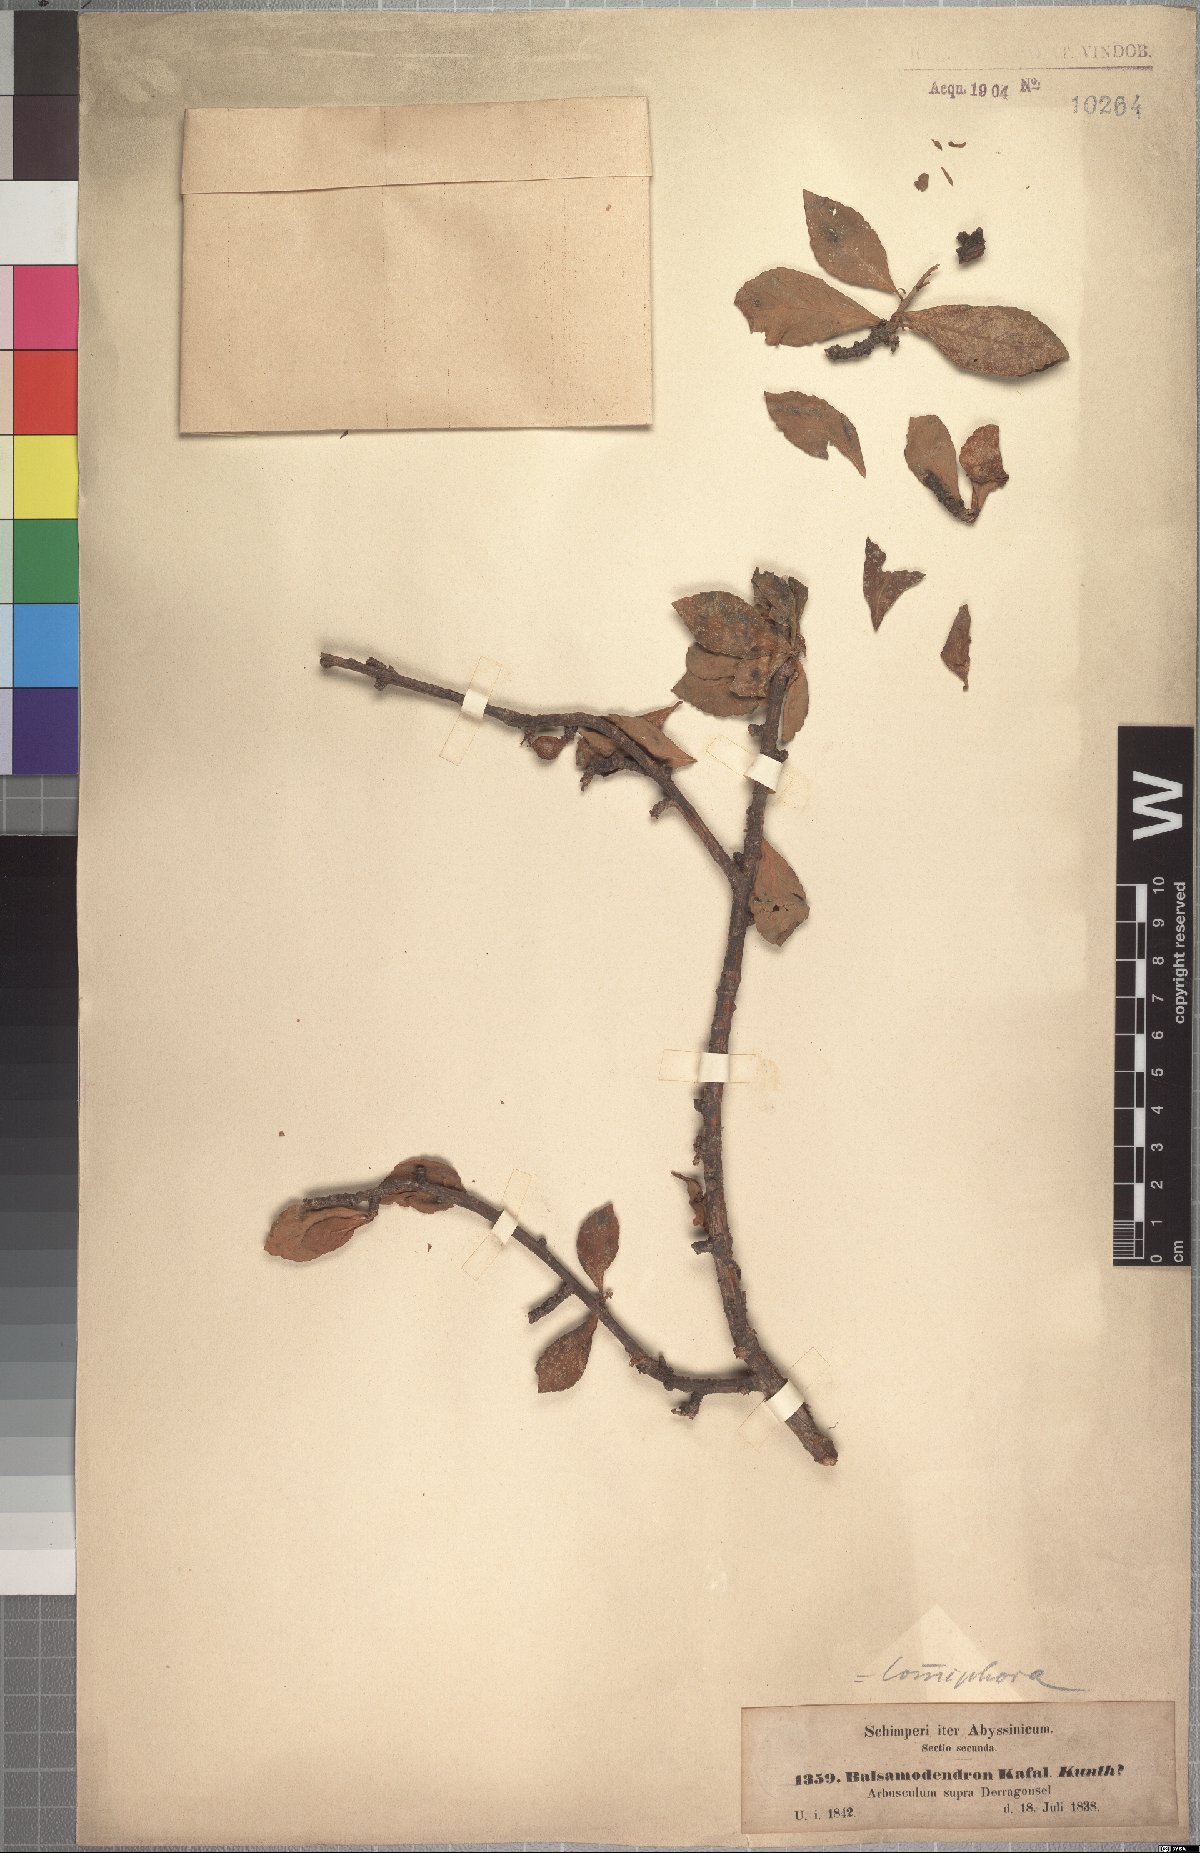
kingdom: Plantae
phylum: Tracheophyta
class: Magnoliopsida
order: Sapindales
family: Burseraceae
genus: Commiphora
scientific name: Commiphora kua
